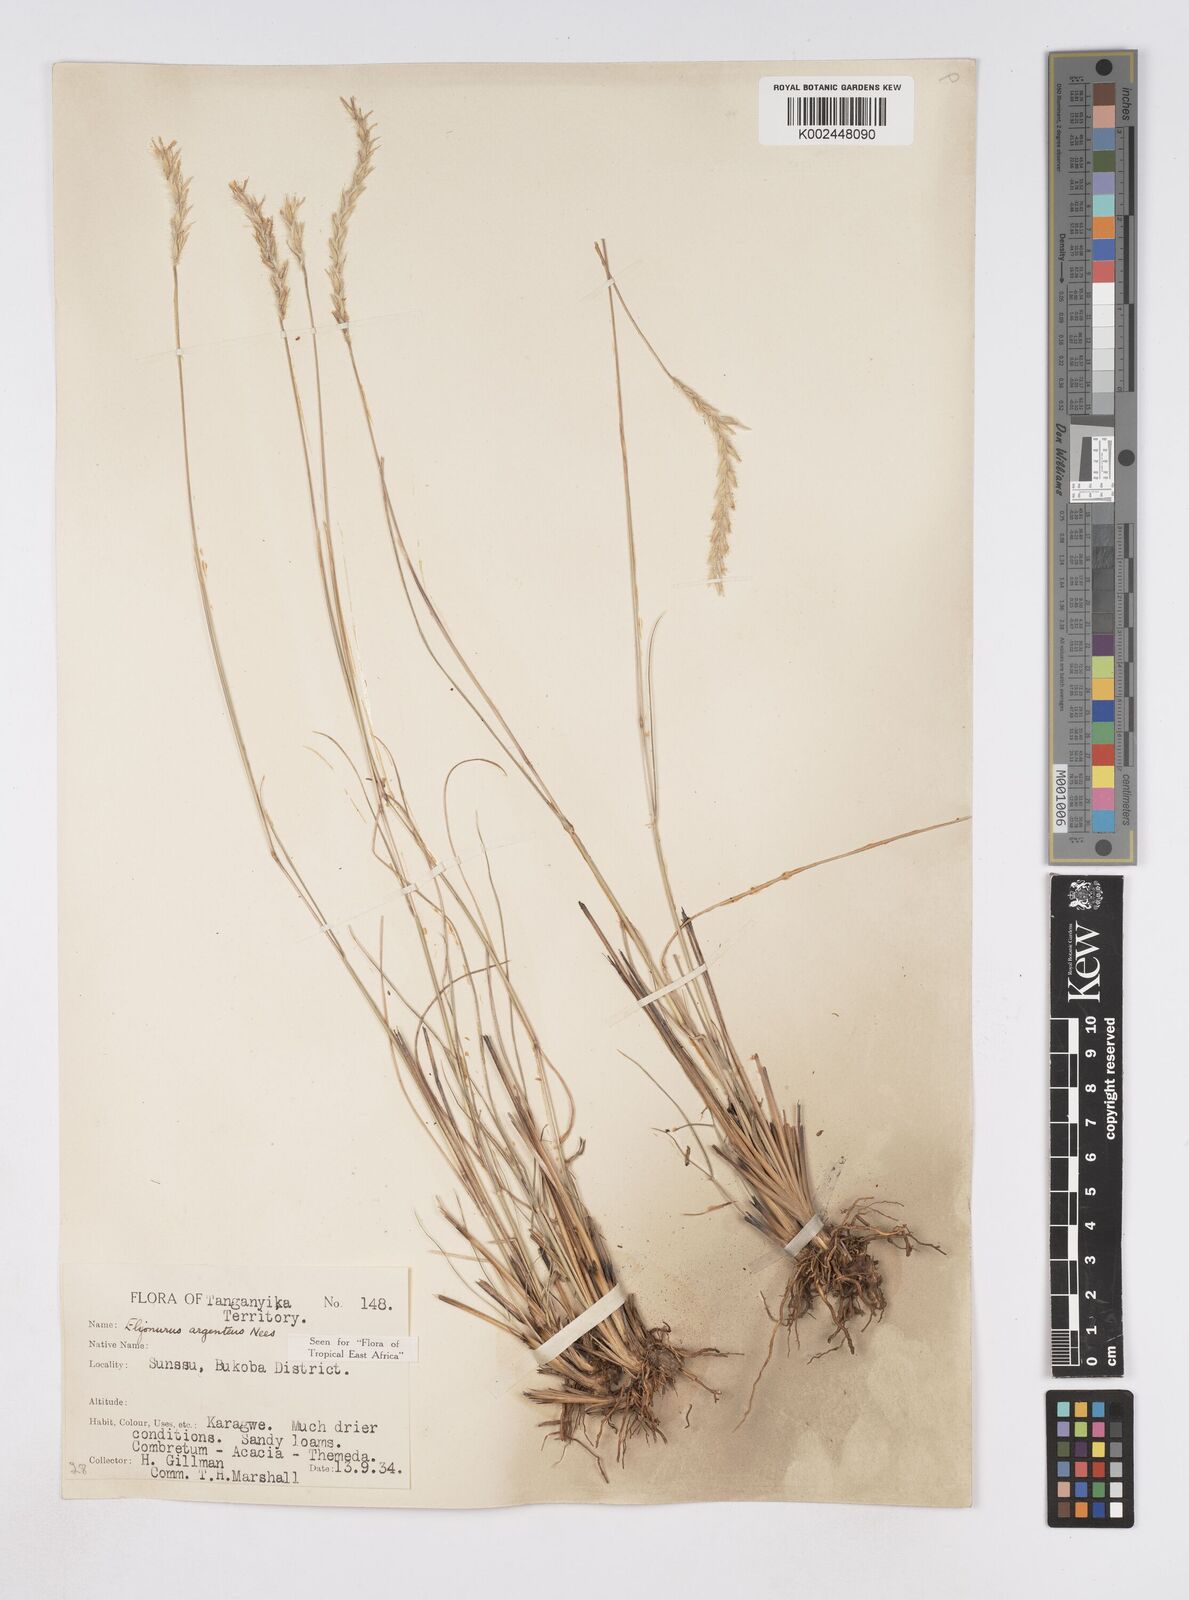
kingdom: Plantae
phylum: Tracheophyta
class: Liliopsida
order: Poales
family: Poaceae
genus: Elionurus
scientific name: Elionurus muticus
